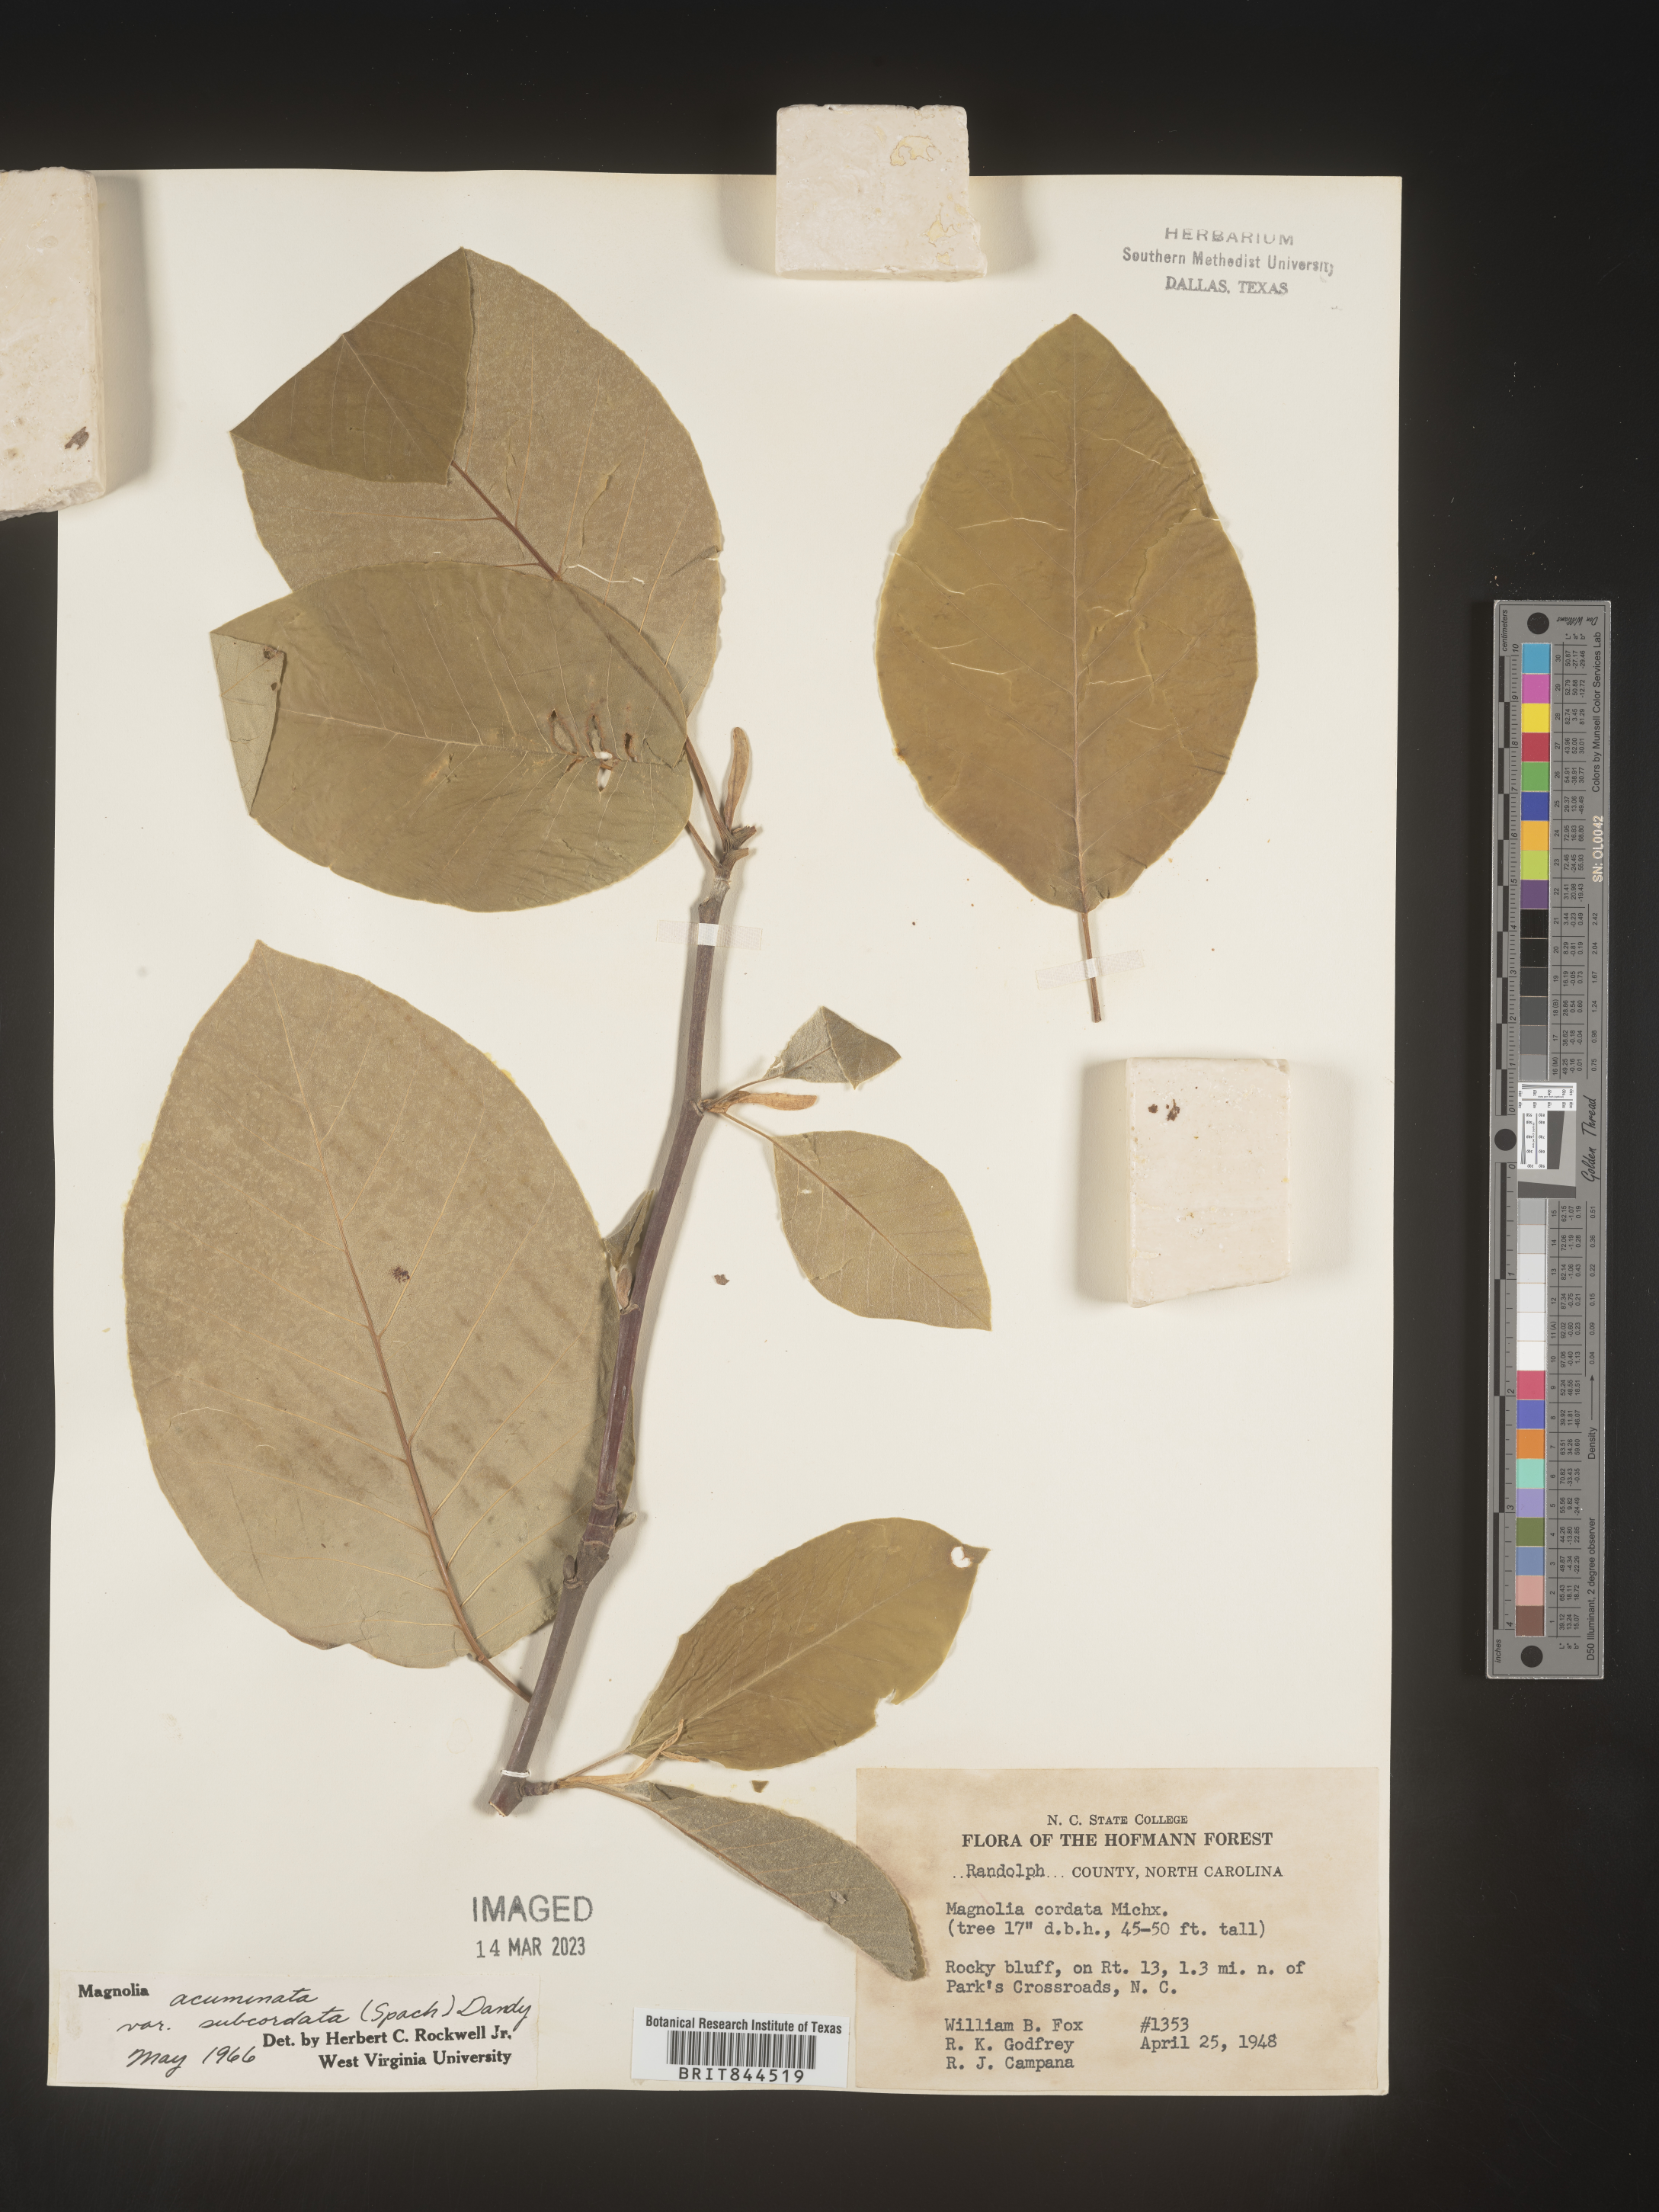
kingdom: Plantae
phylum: Tracheophyta
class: Magnoliopsida
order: Magnoliales
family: Magnoliaceae
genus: Magnolia
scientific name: Magnolia acuminata
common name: Cucumber magnolia
